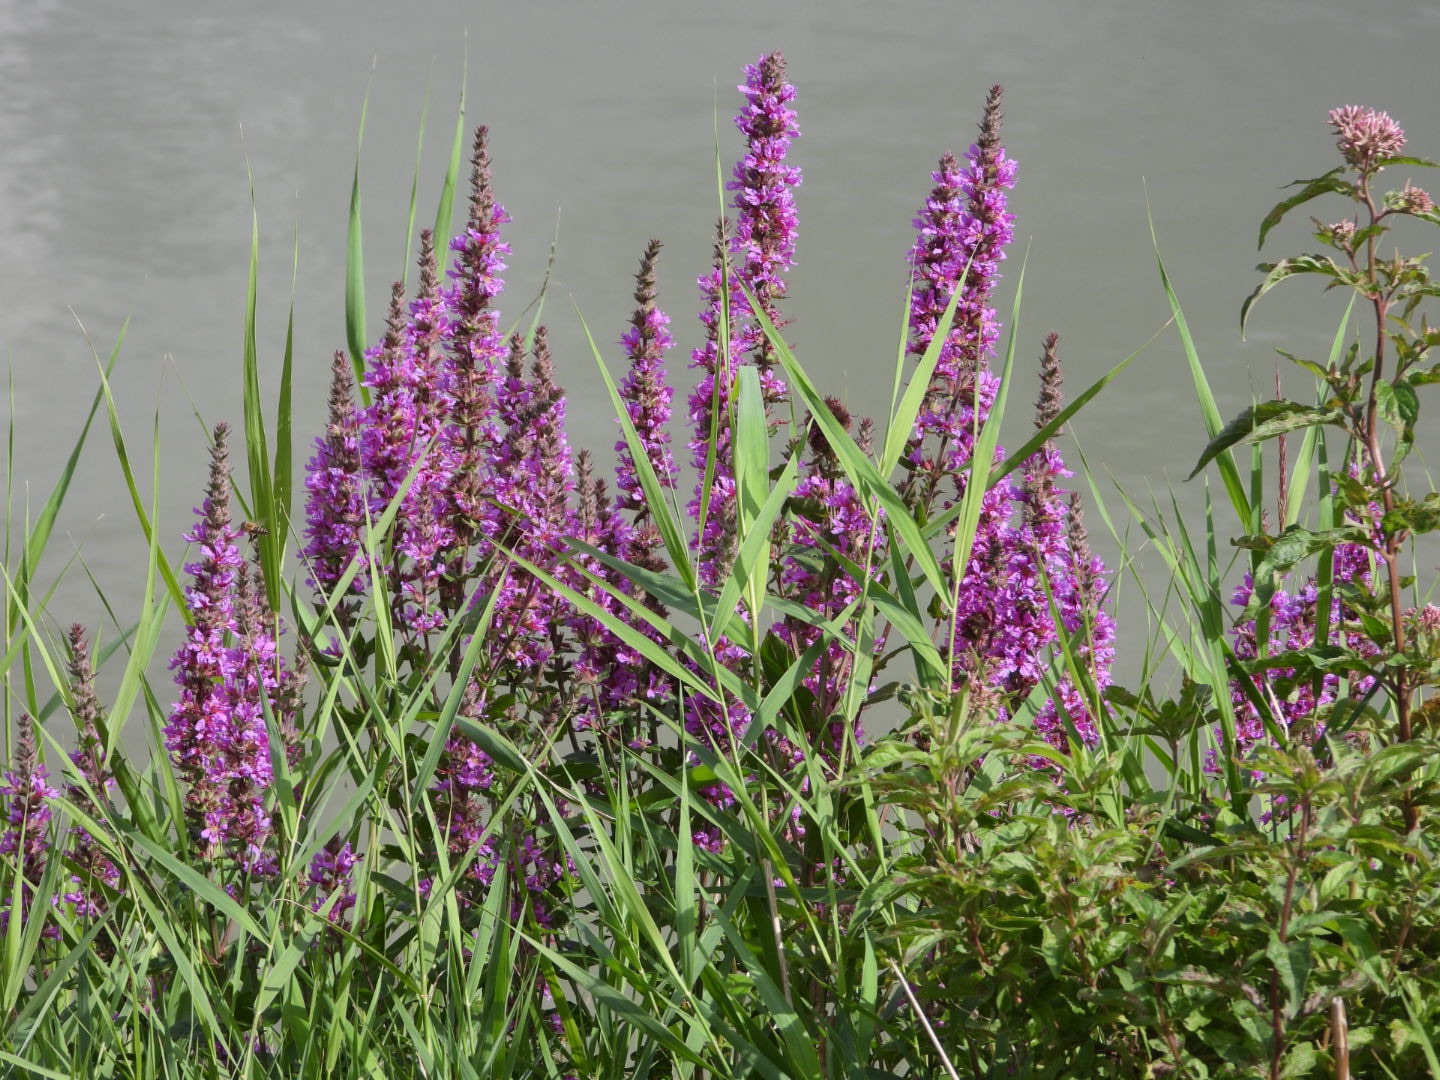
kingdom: Plantae
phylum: Tracheophyta
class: Magnoliopsida
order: Myrtales
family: Lythraceae
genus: Lythrum
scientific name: Lythrum salicaria
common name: Kattehale
